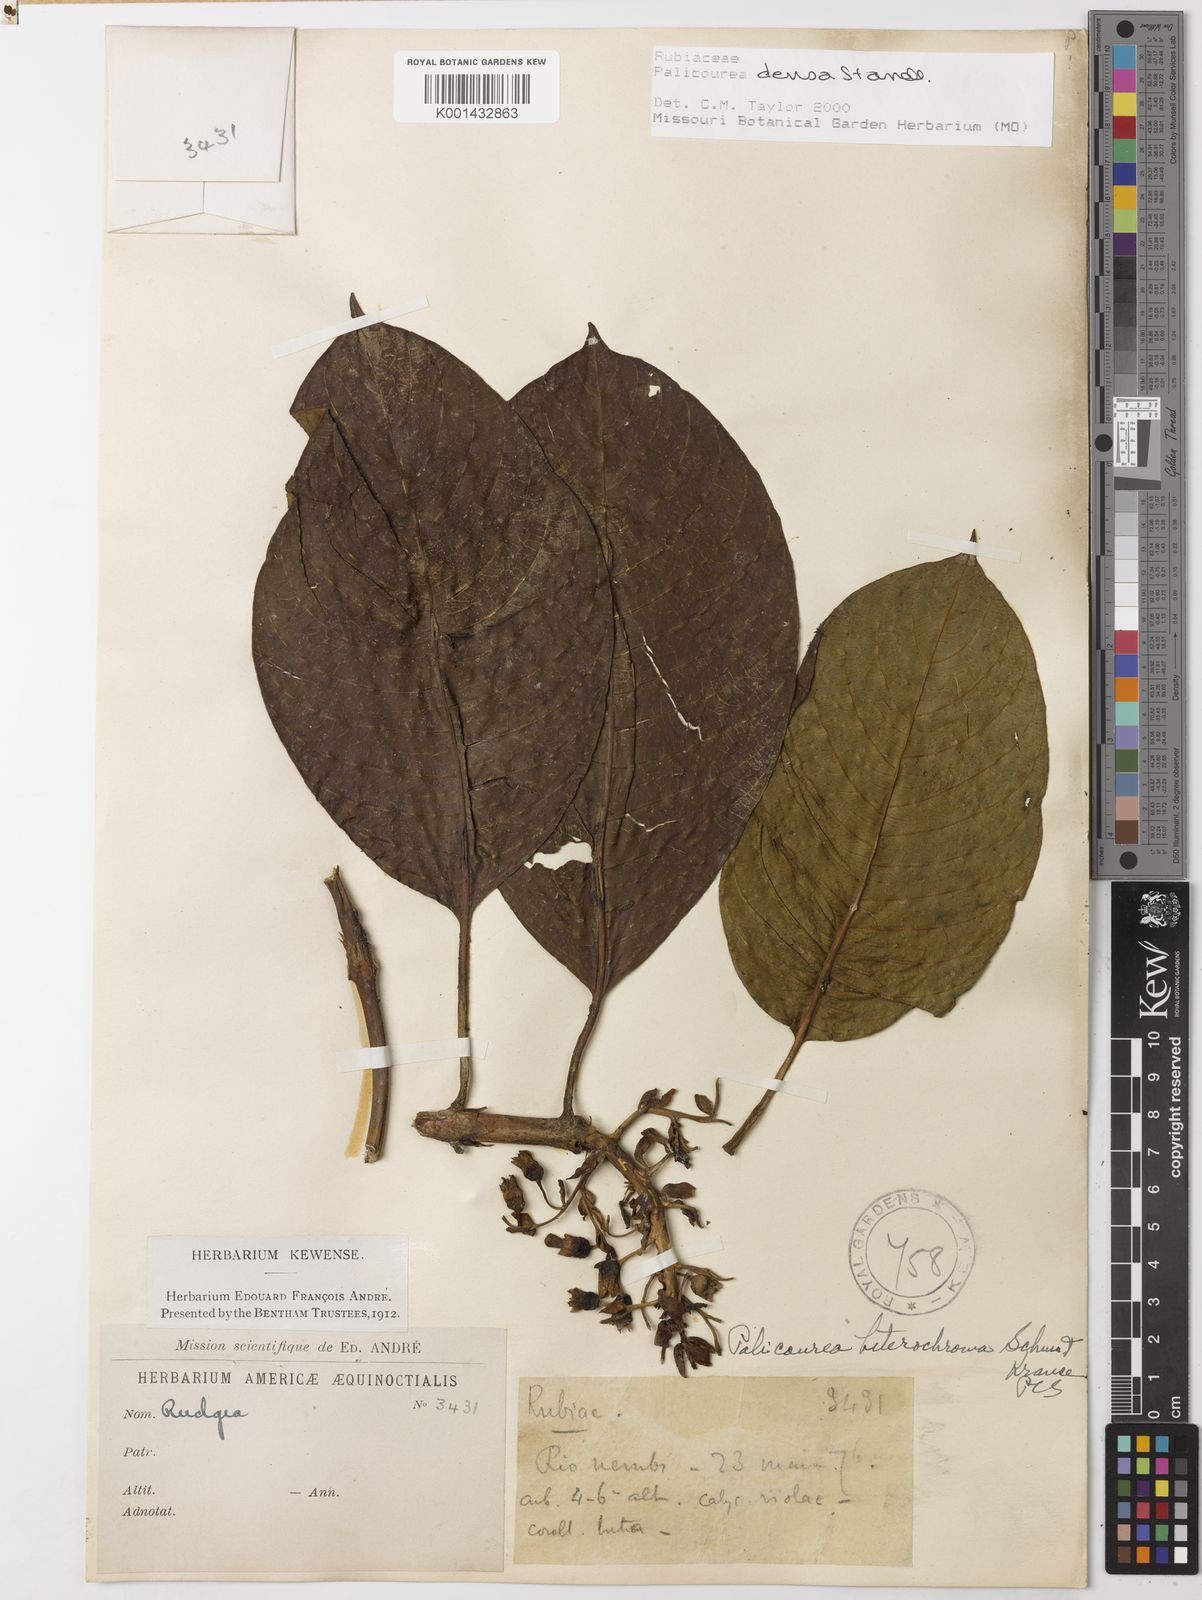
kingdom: Plantae
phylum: Tracheophyta
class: Magnoliopsida
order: Gentianales
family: Rubiaceae
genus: Palicourea
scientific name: Palicourea densa
